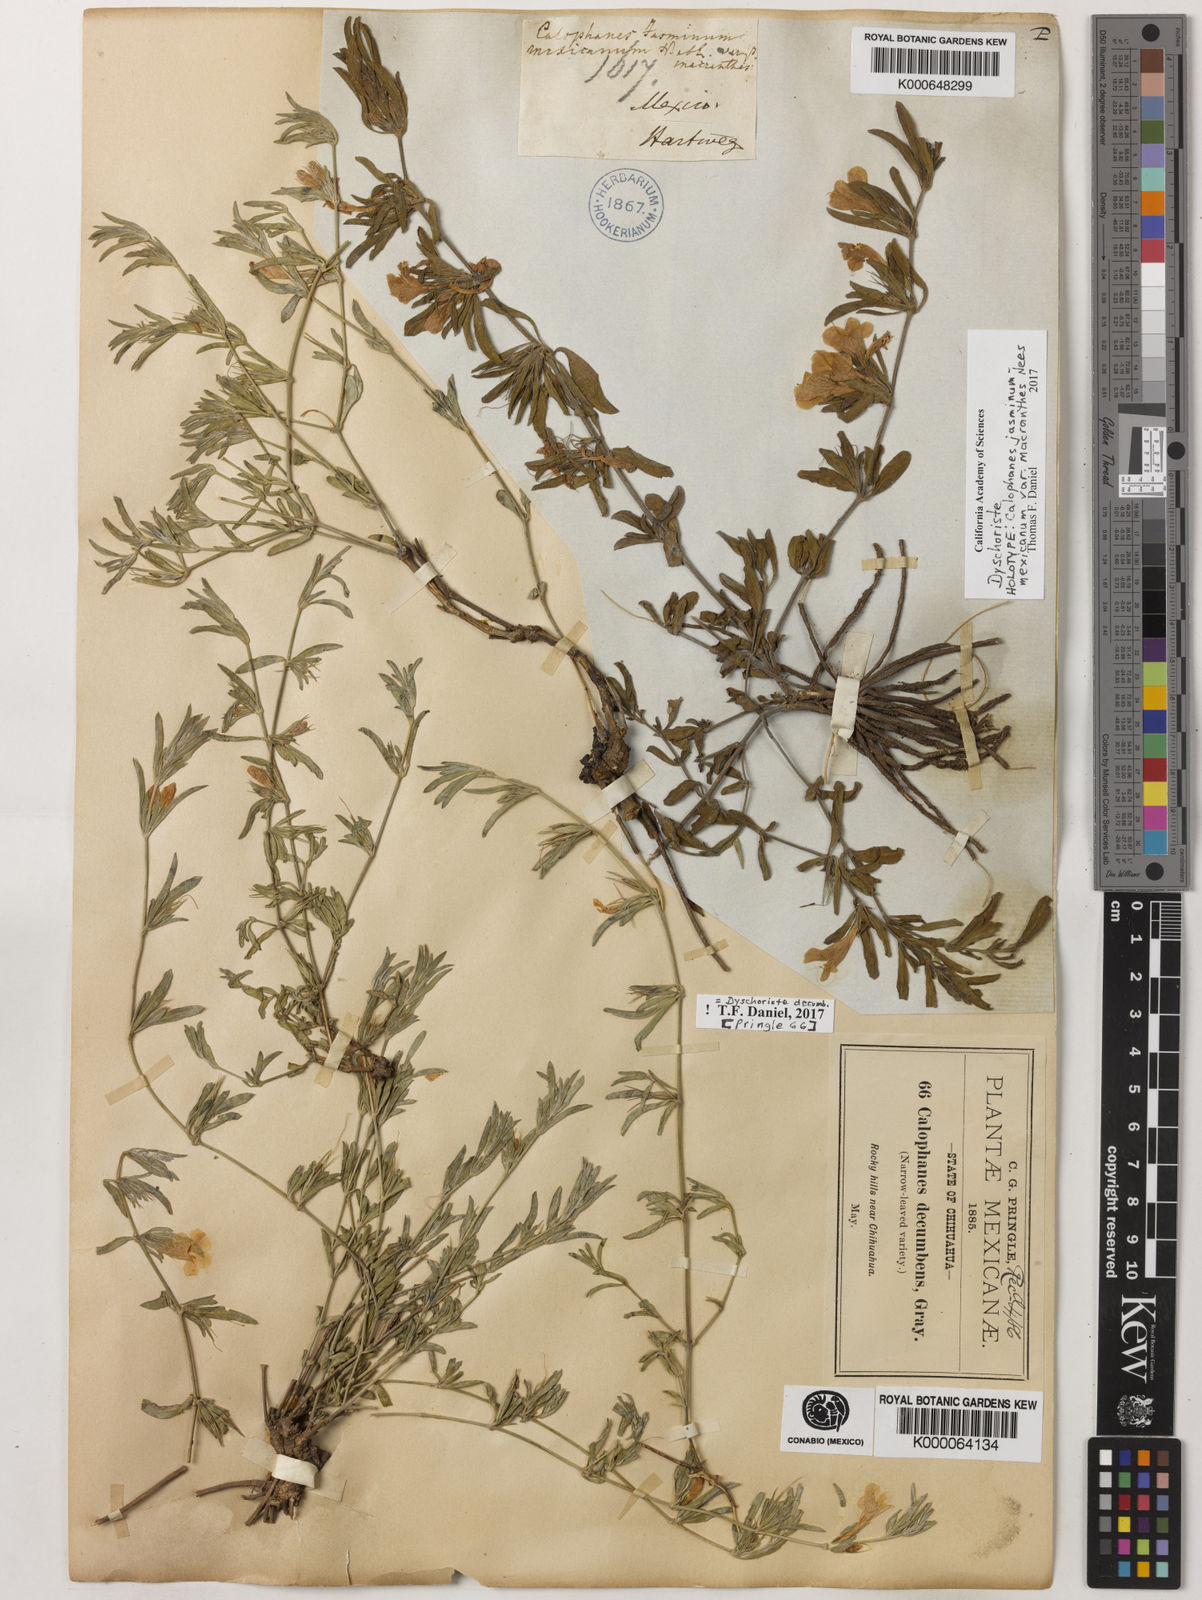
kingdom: Plantae
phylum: Tracheophyta
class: Magnoliopsida
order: Lamiales
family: Acanthaceae
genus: Dyschoriste
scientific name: Dyschoriste decumbens
